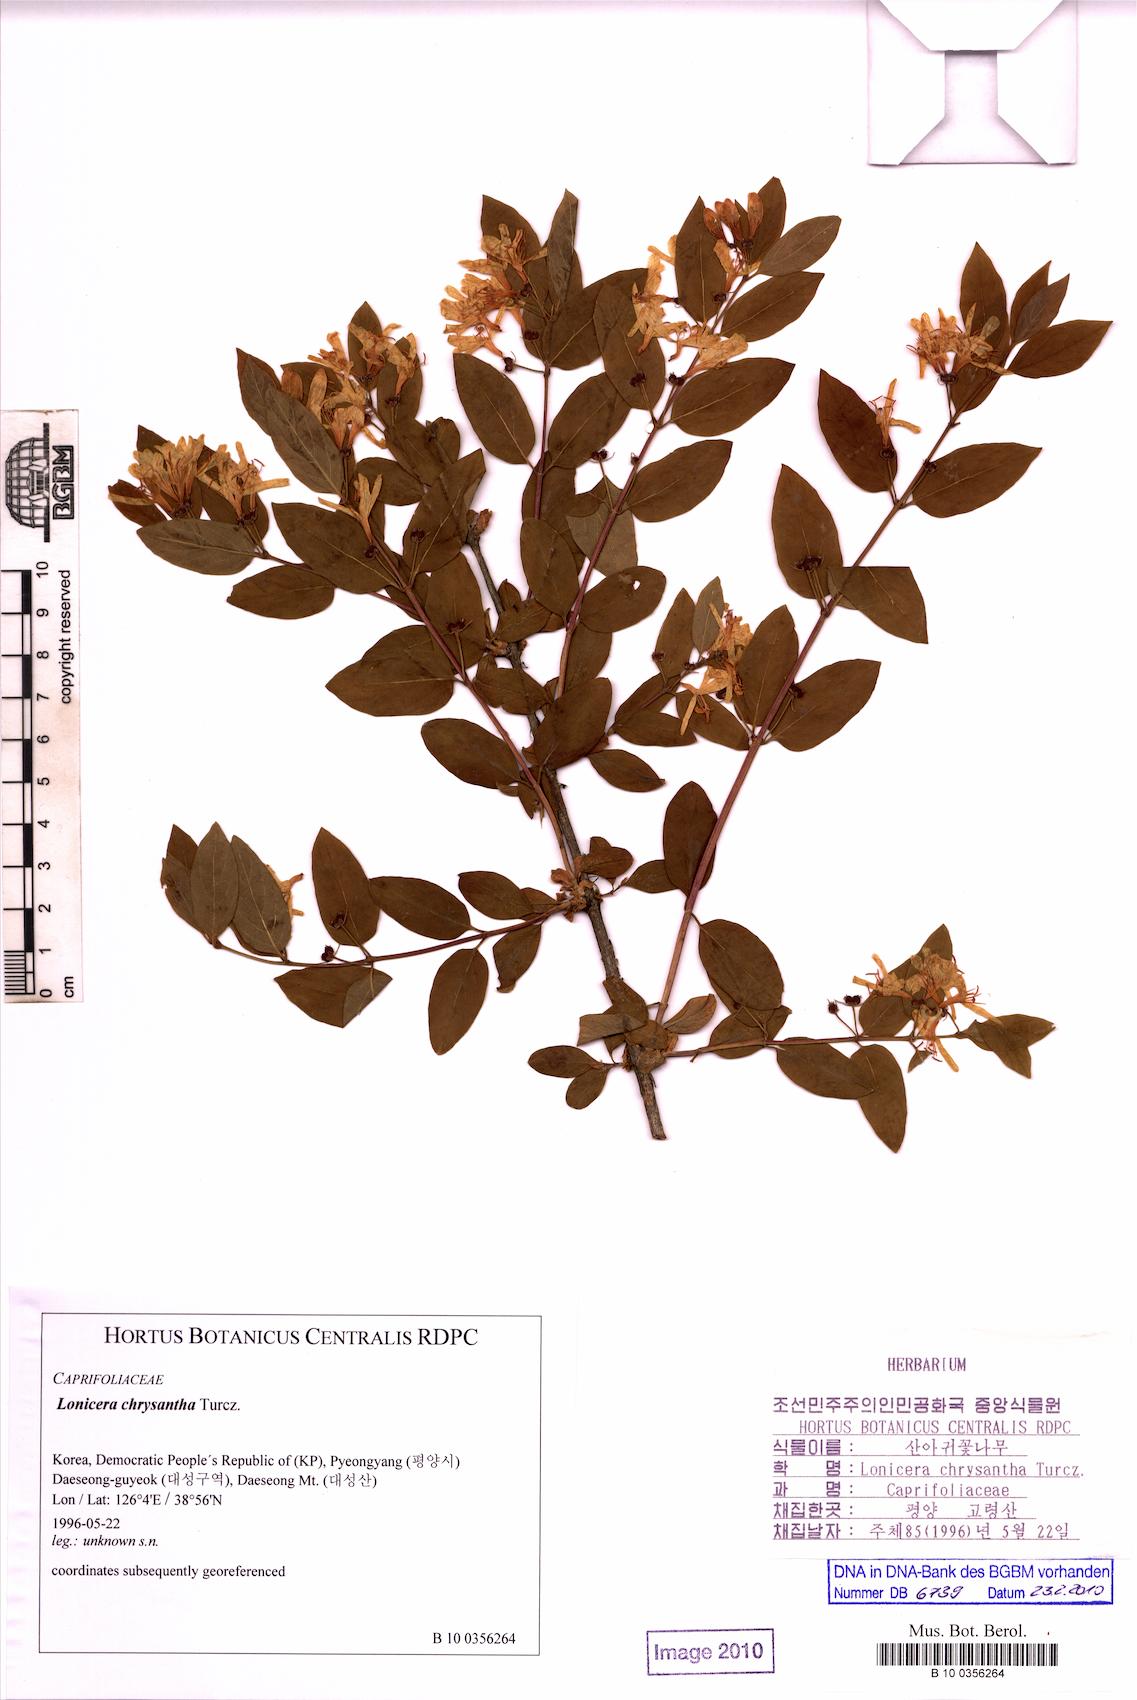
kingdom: Plantae
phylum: Tracheophyta
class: Magnoliopsida
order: Dipsacales
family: Caprifoliaceae
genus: Lonicera
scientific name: Lonicera chrysantha
